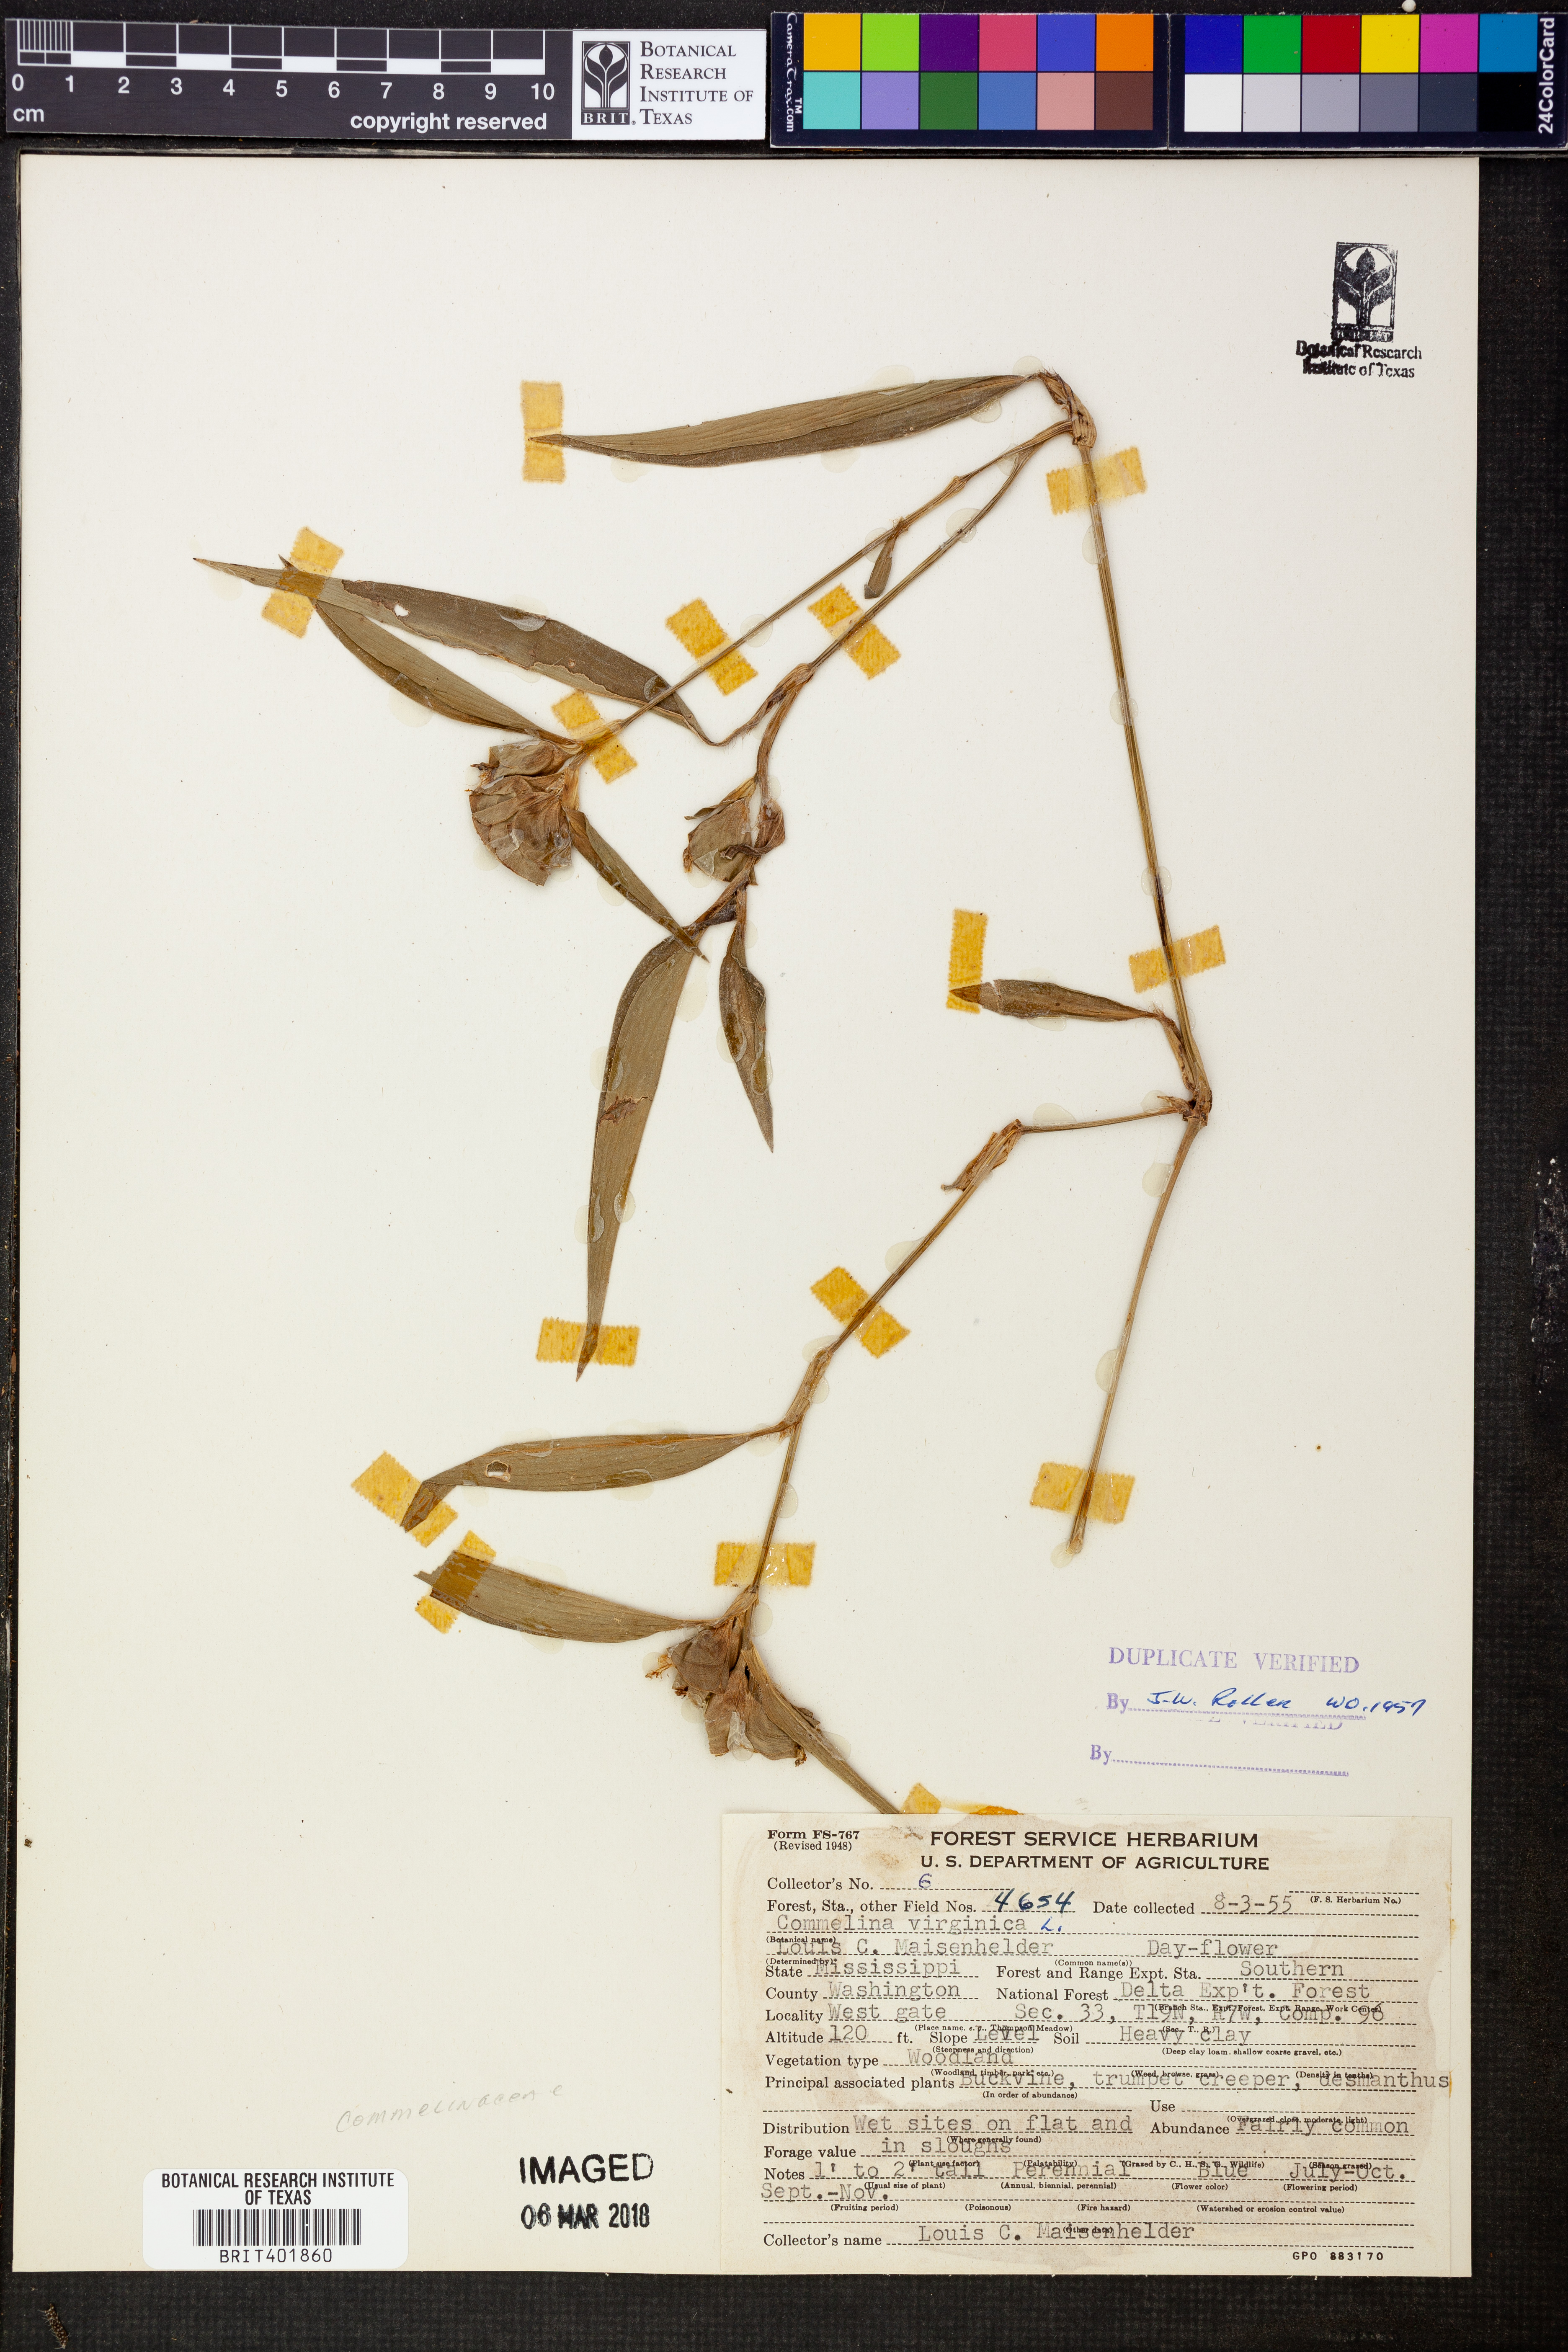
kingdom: Plantae
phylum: Tracheophyta
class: Liliopsida
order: Commelinales
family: Commelinaceae
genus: Commelina
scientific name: Commelina virginica
